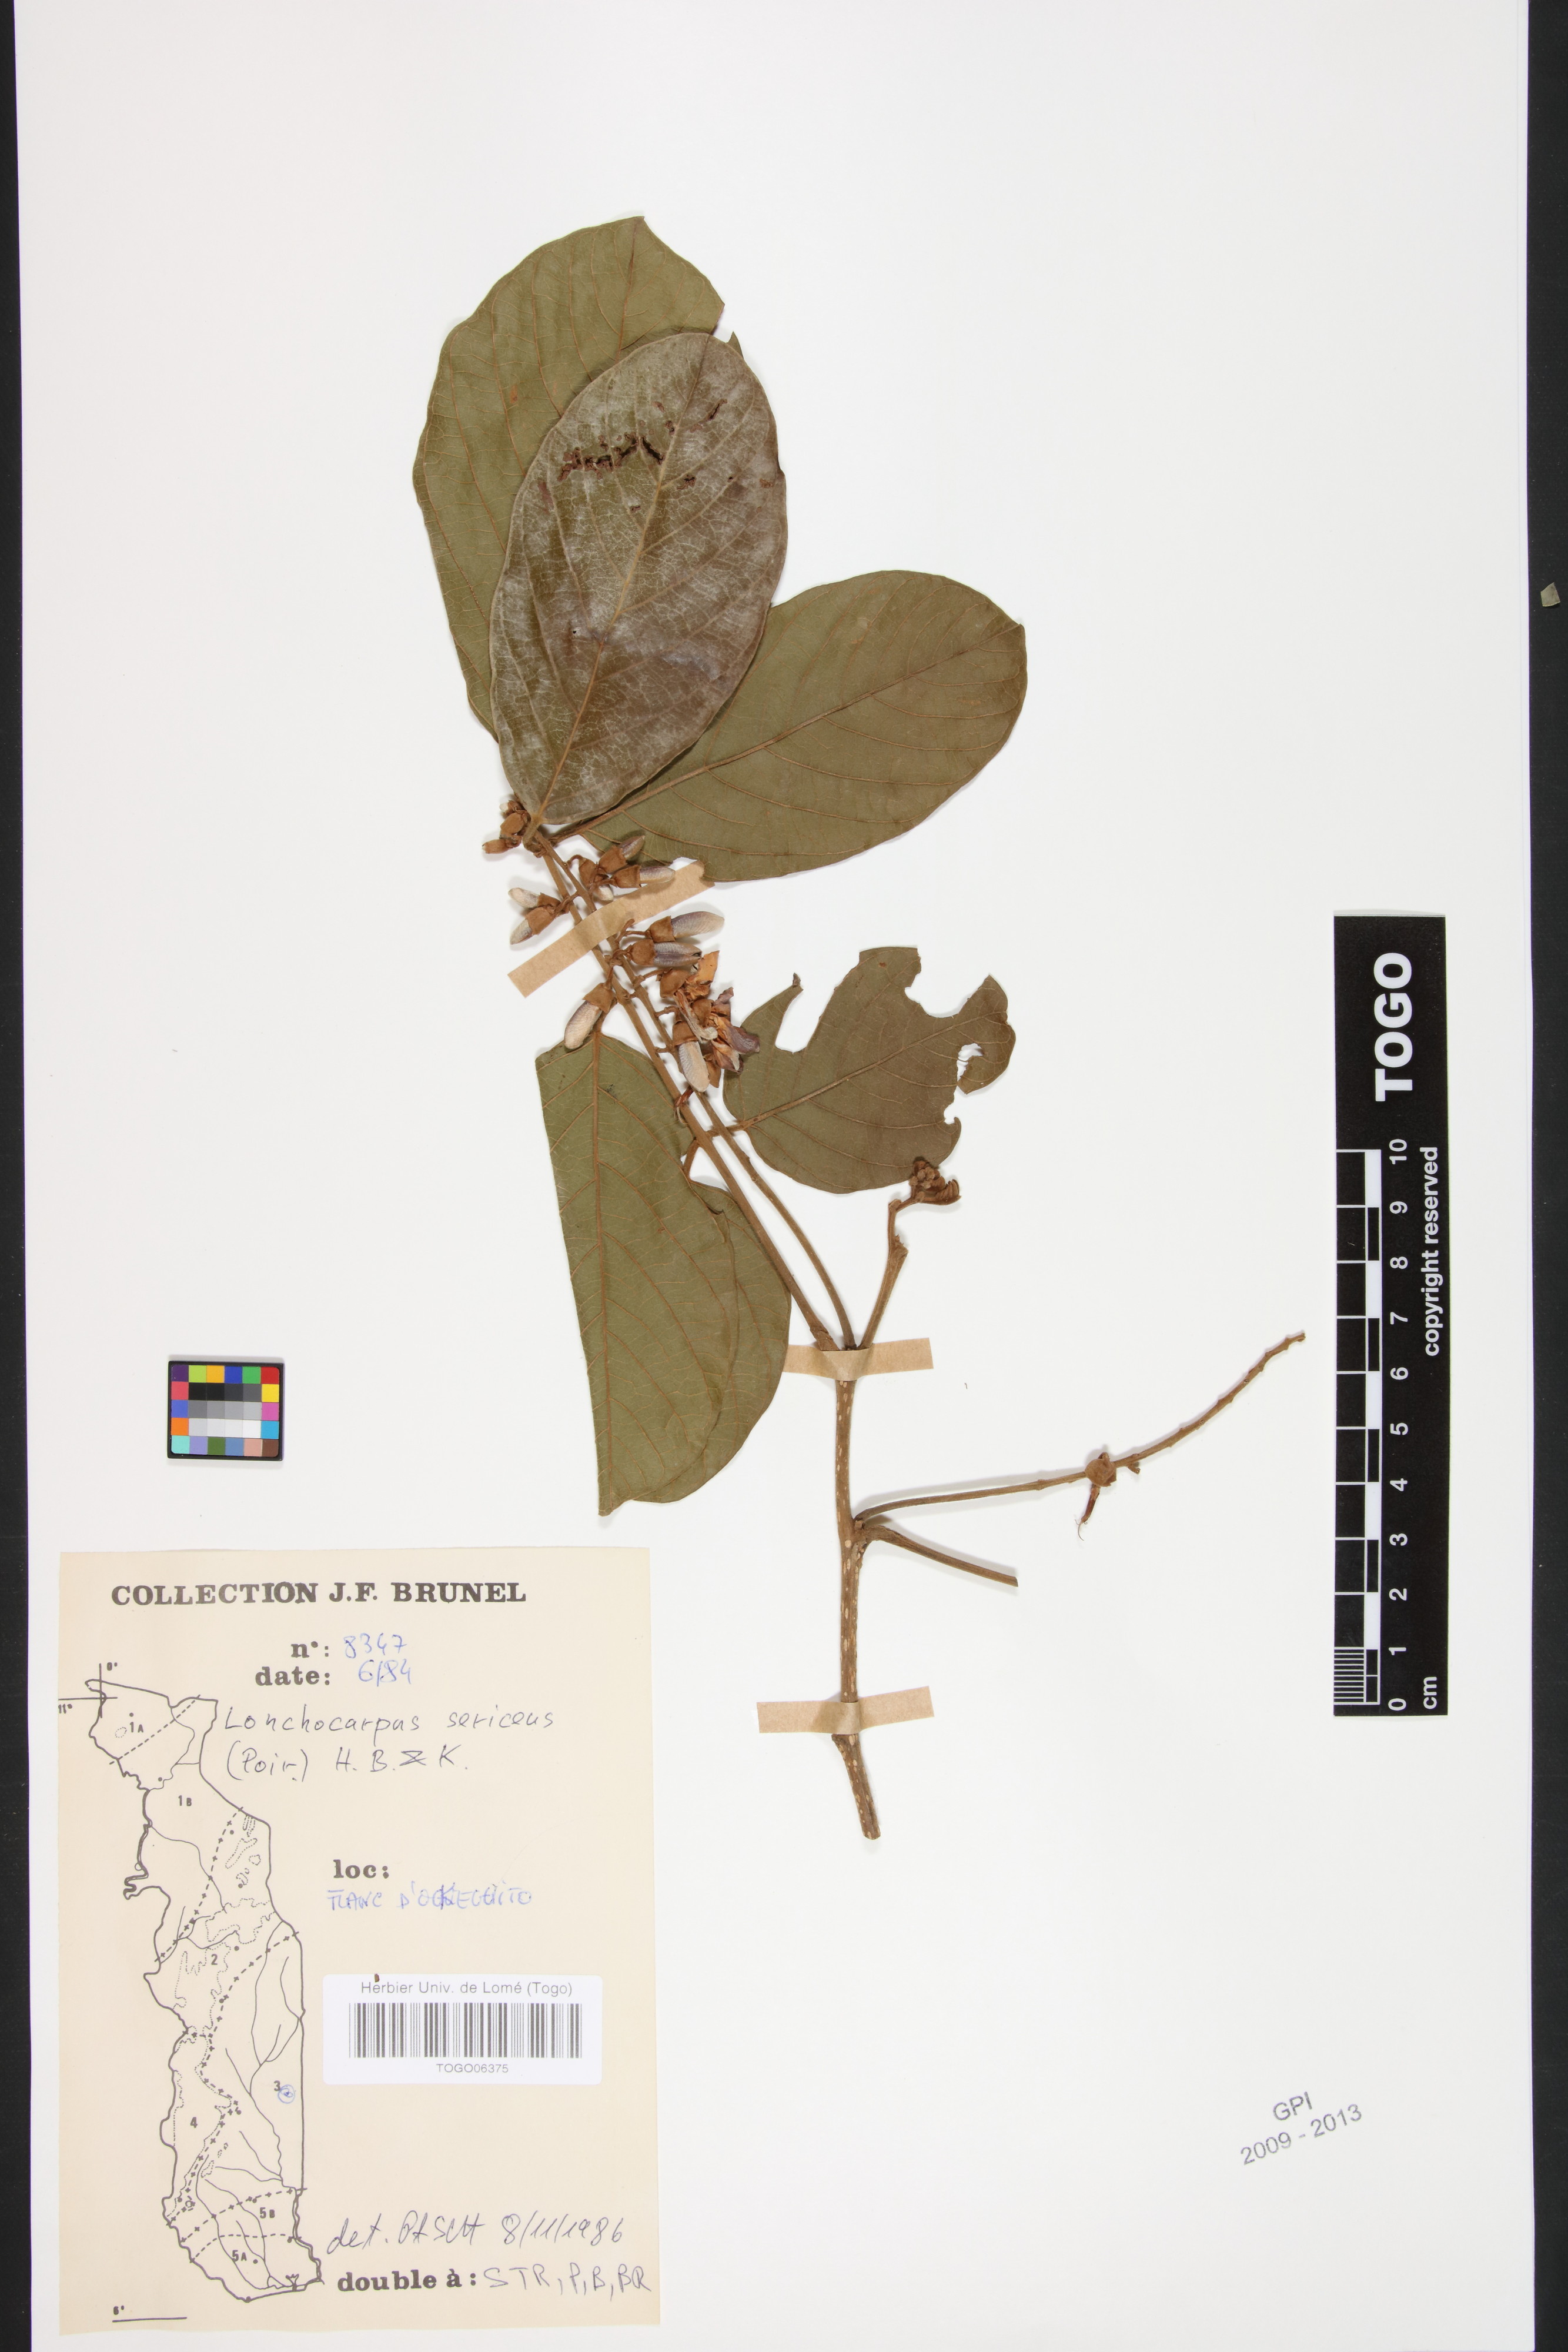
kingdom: Plantae
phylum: Tracheophyta
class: Magnoliopsida
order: Fabales
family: Fabaceae
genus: Lonchocarpus
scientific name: Lonchocarpus sericeus
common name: Savonette
